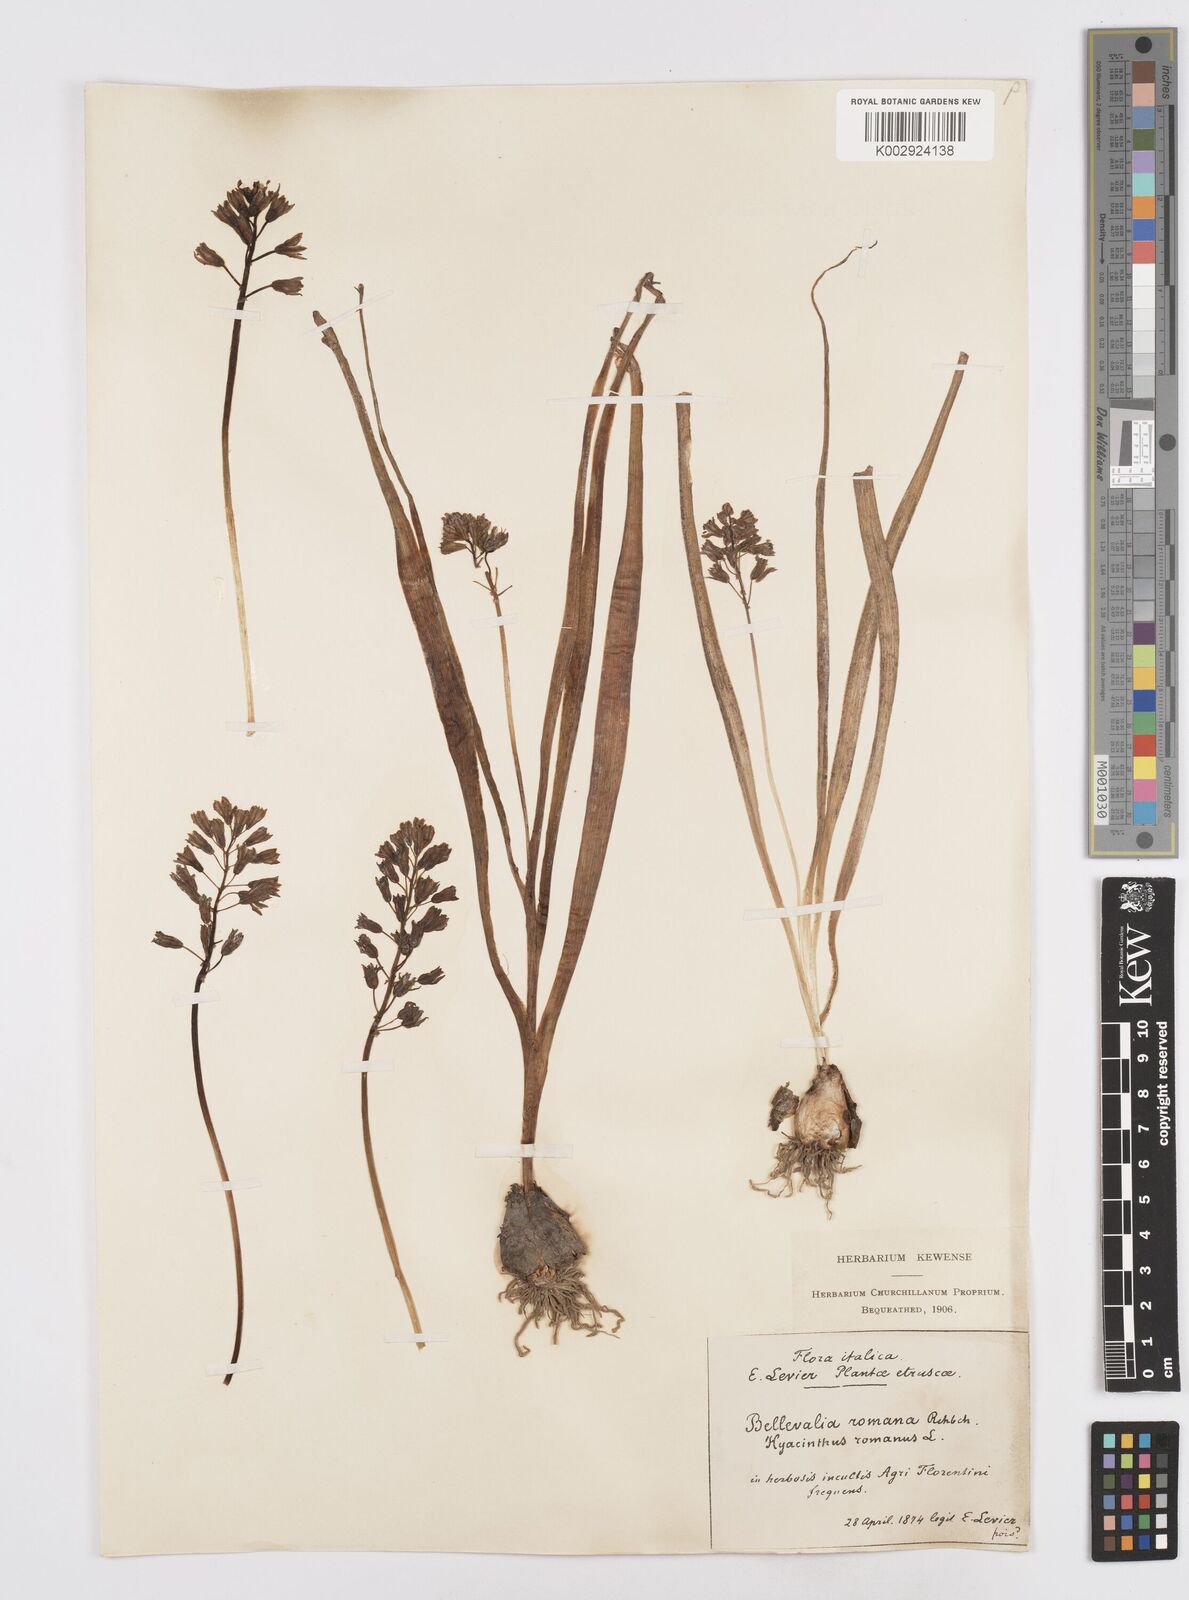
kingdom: Plantae
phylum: Tracheophyta
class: Liliopsida
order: Asparagales
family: Asparagaceae
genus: Bellevalia
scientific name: Bellevalia
